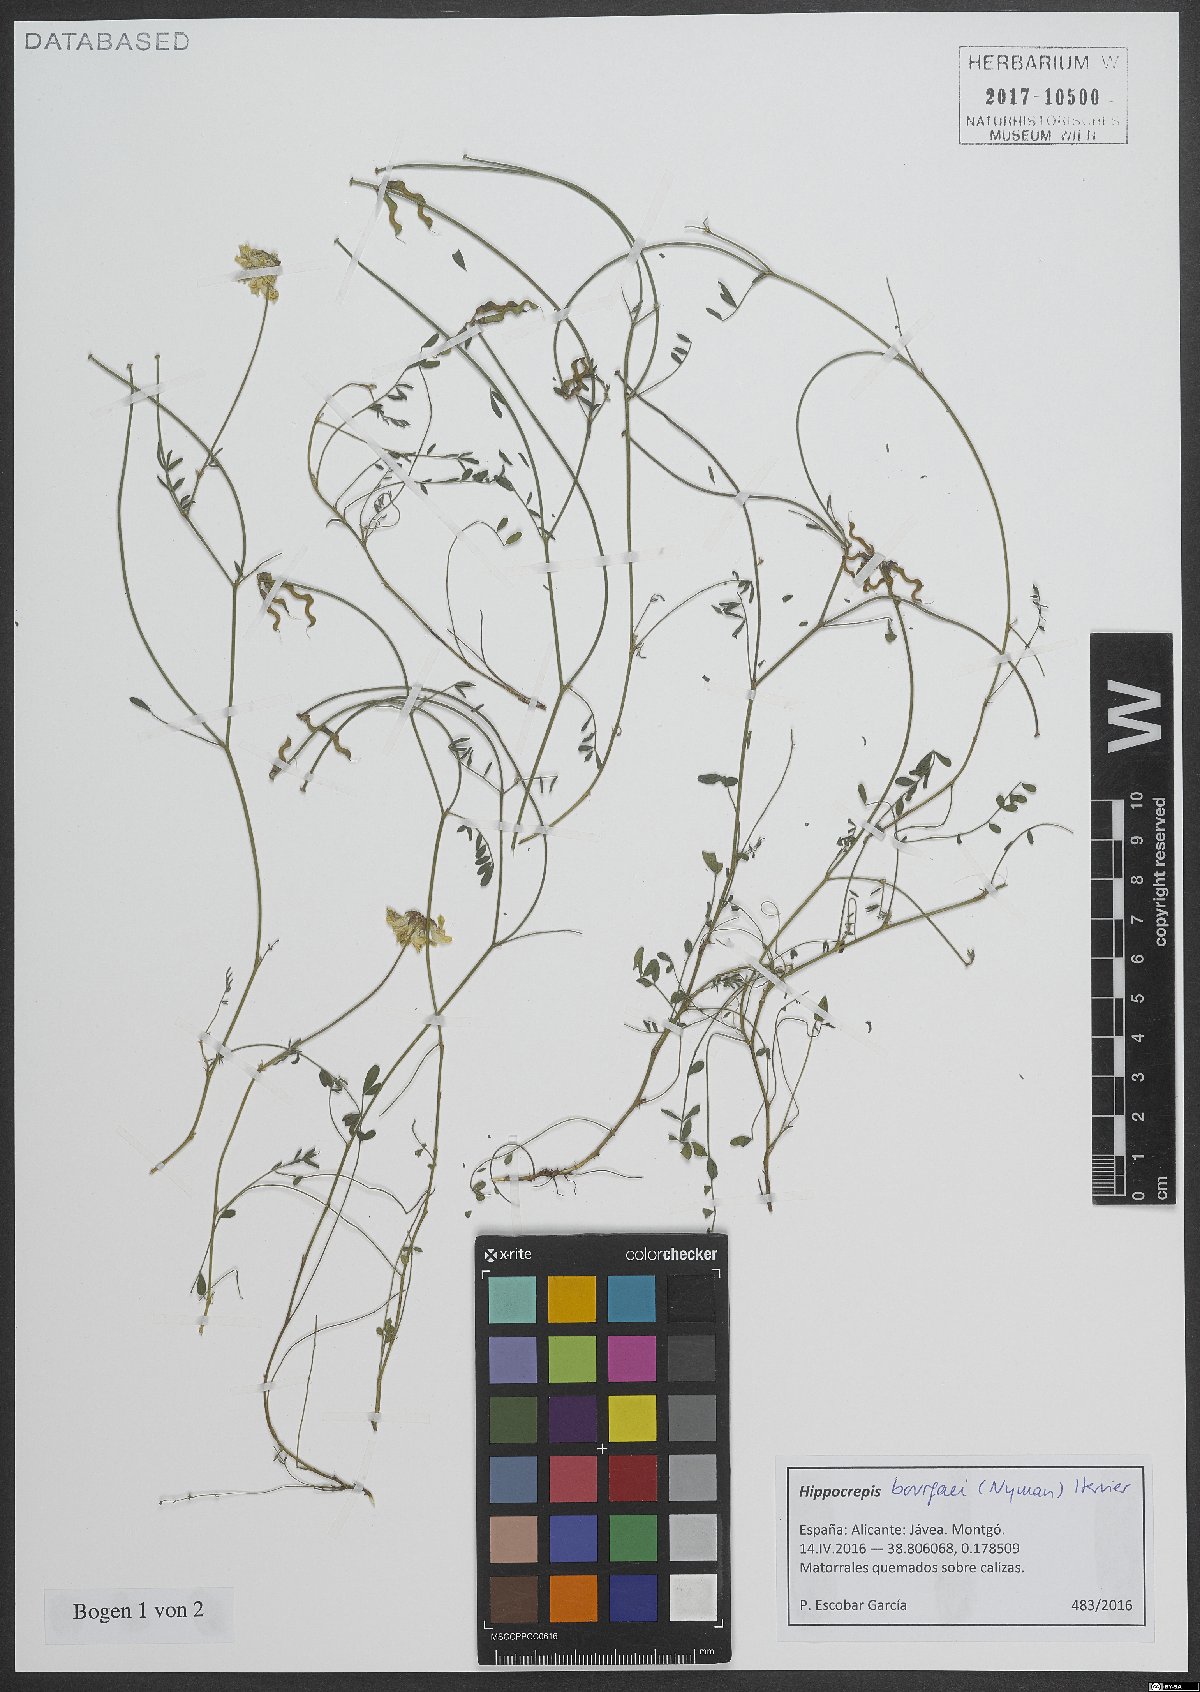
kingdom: Plantae
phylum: Tracheophyta
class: Magnoliopsida
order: Fabales
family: Fabaceae
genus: Hippocrepis
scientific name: Hippocrepis bourgaei
